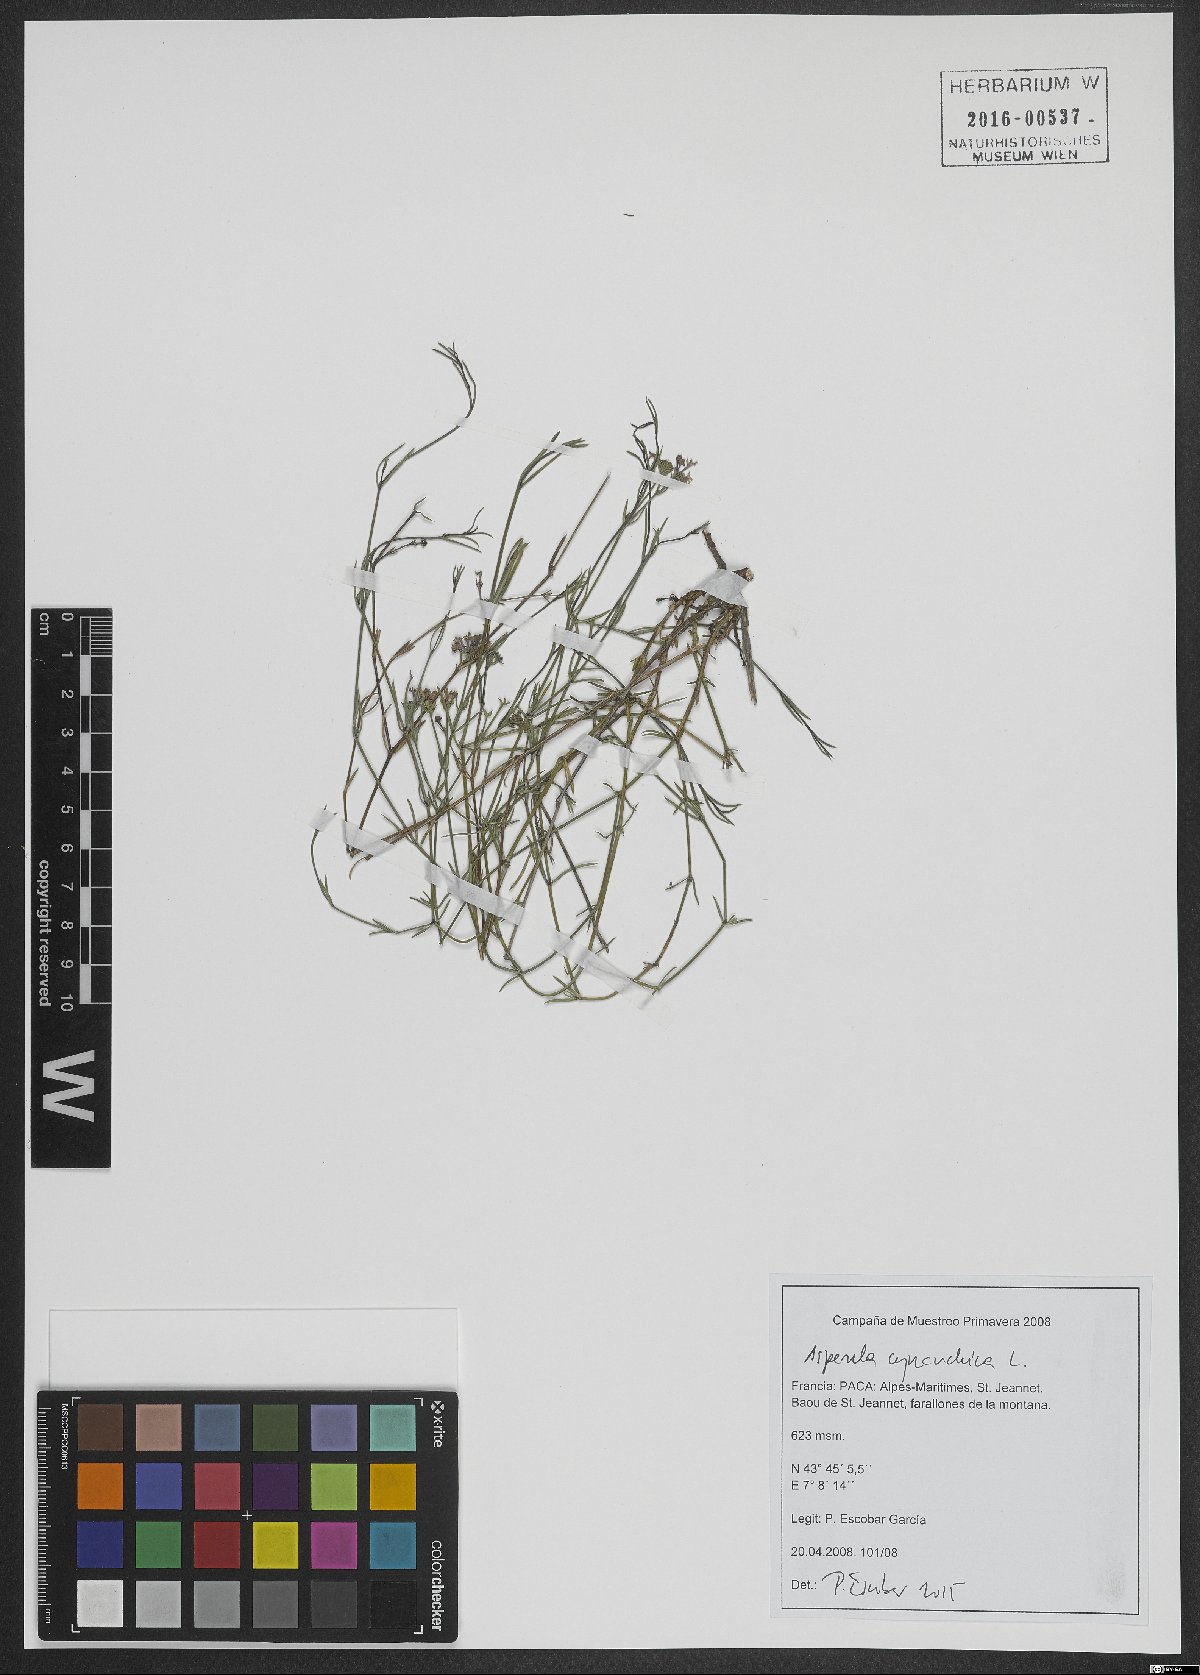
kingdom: Plantae
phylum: Tracheophyta
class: Magnoliopsida
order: Gentianales
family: Rubiaceae
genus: Cynanchica
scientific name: Cynanchica pyrenaica
